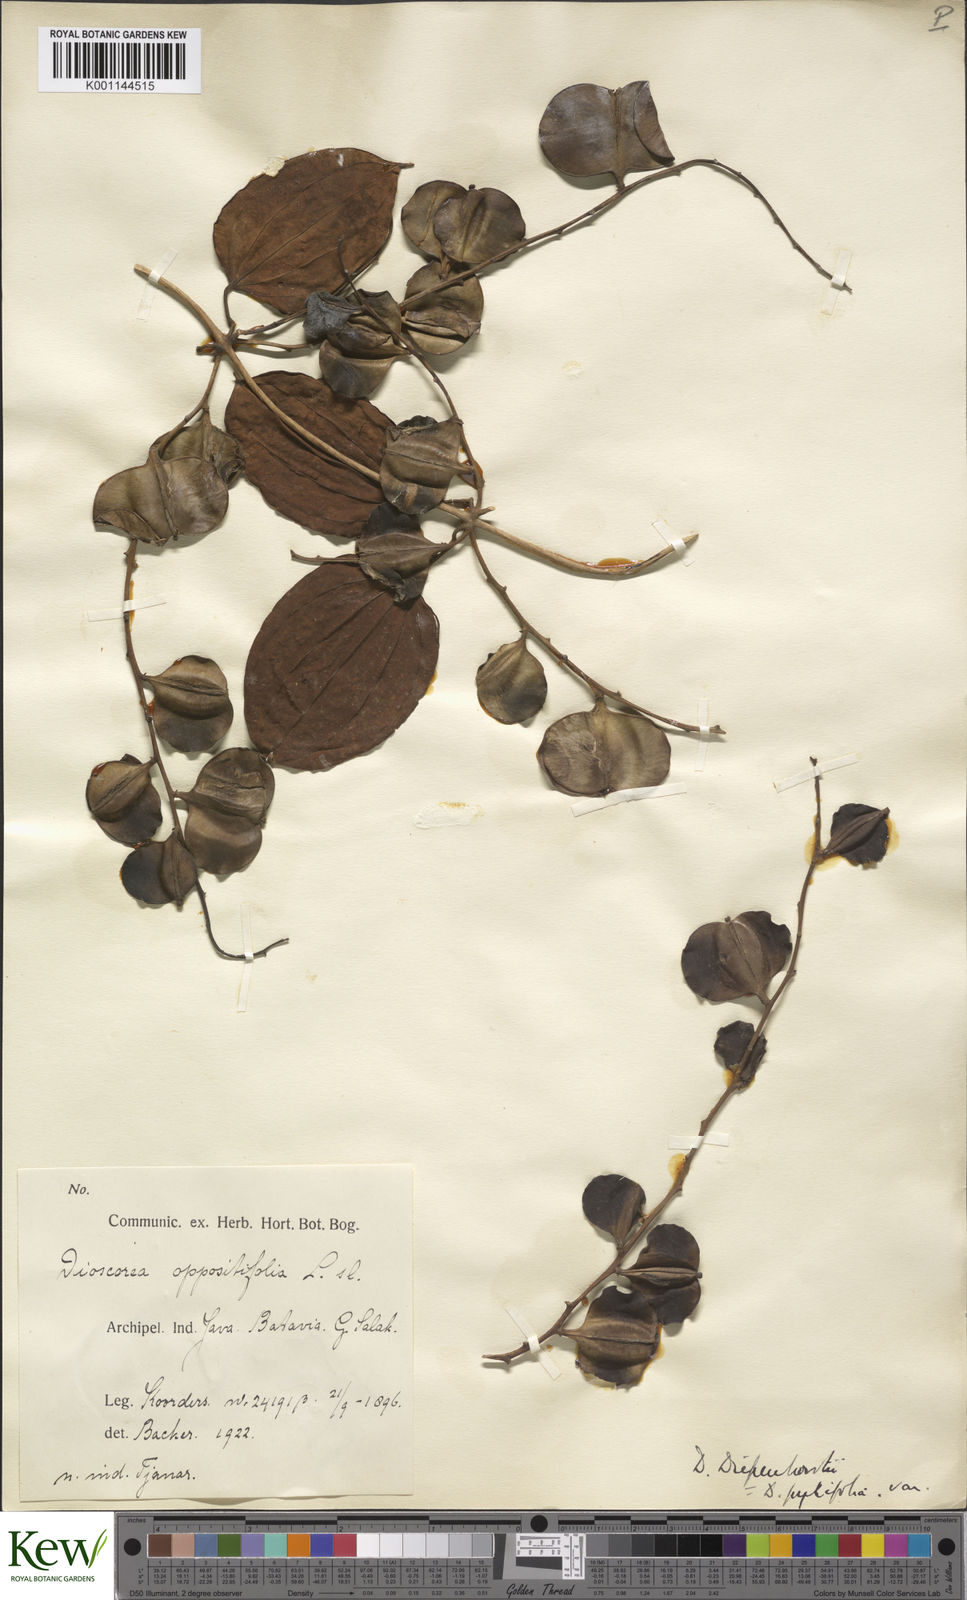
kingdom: Plantae
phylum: Tracheophyta
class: Liliopsida
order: Dioscoreales
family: Dioscoreaceae
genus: Dioscorea
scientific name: Dioscorea pyrifolia
